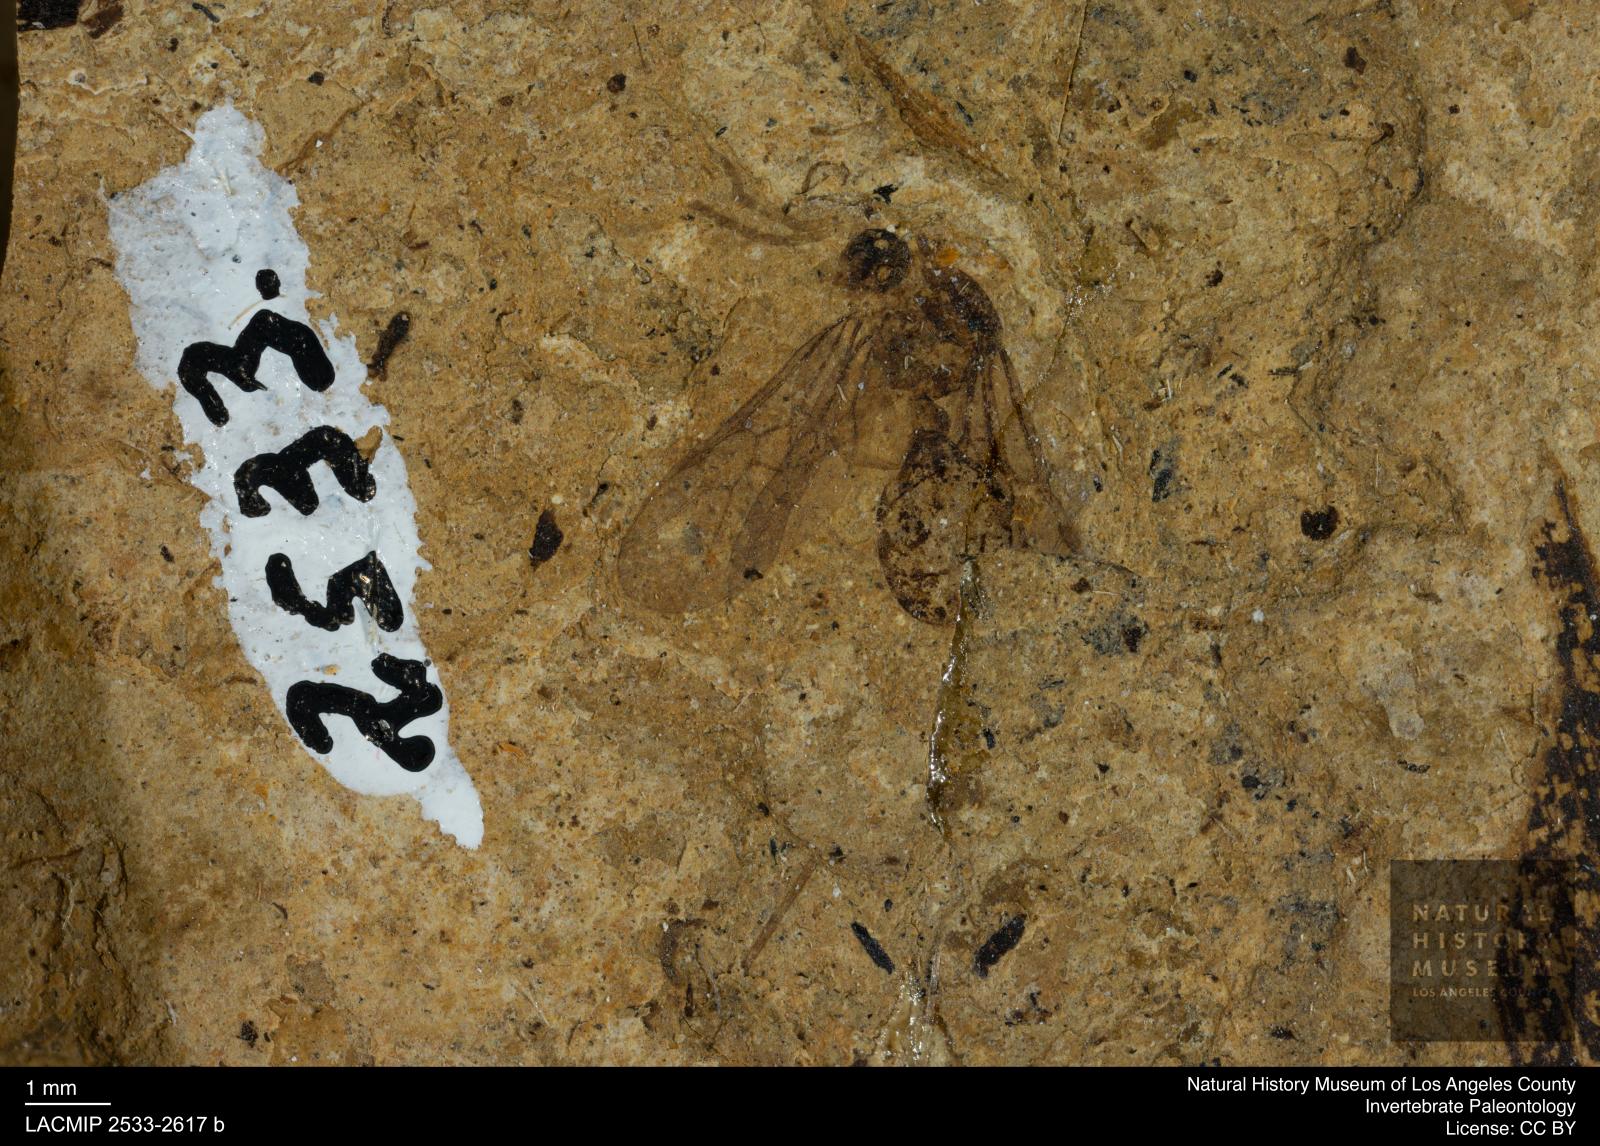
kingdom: Animalia
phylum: Arthropoda
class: Insecta
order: Hymenoptera
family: Formicidae
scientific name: Formicidae
